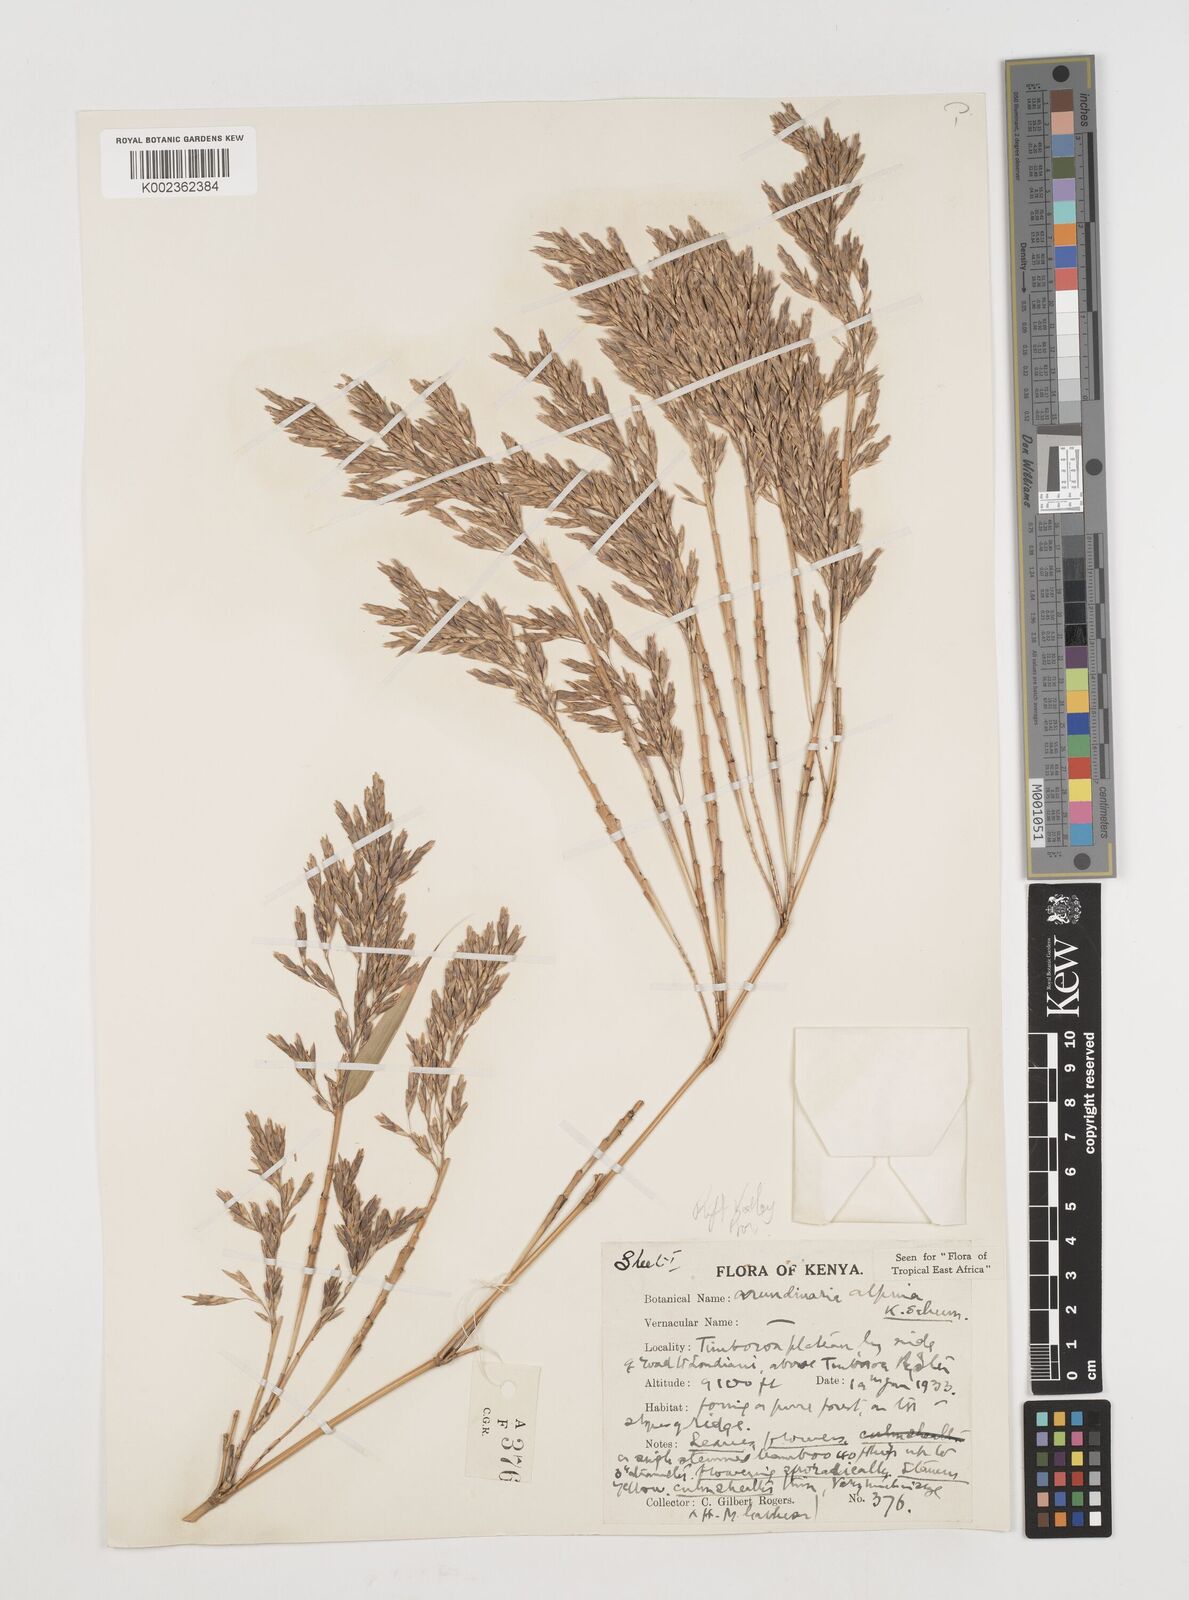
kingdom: Plantae
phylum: Tracheophyta
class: Liliopsida
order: Poales
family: Poaceae
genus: Oldeania
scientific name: Oldeania alpina
